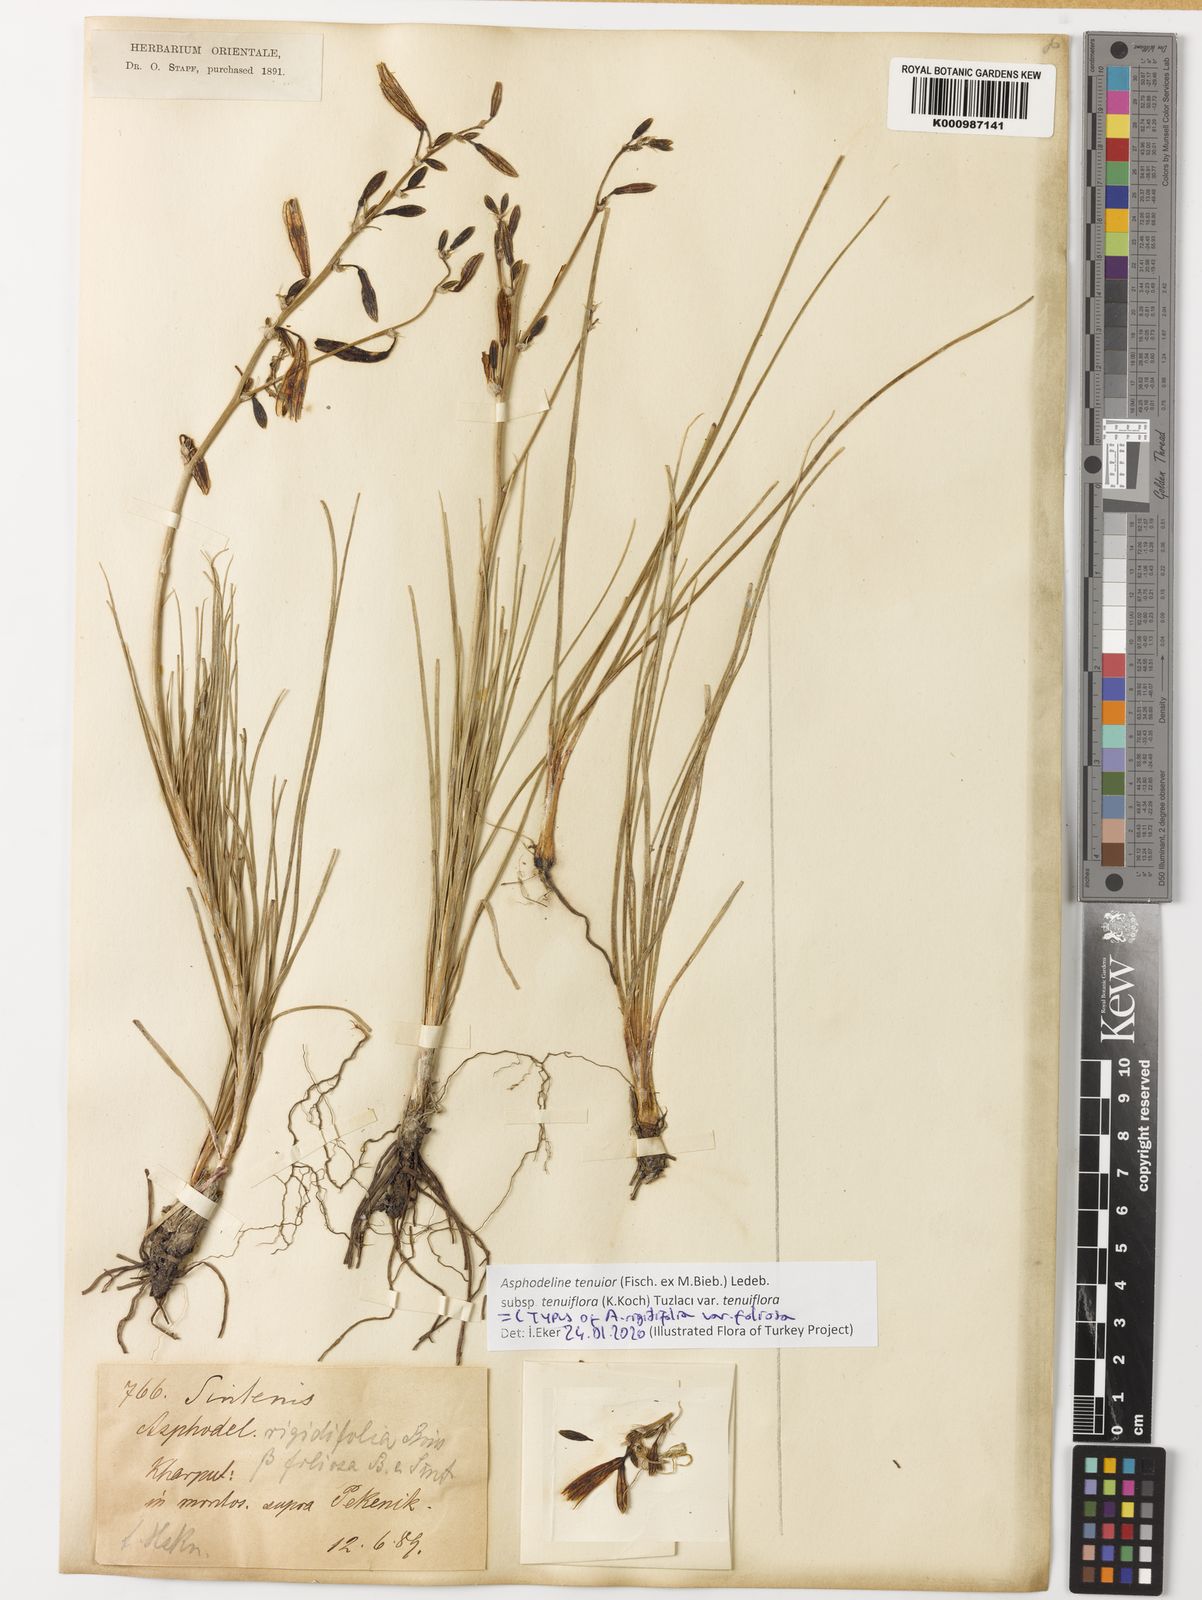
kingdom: Plantae
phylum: Tracheophyta
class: Liliopsida
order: Asparagales
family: Asphodelaceae
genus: Asphodeline
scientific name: Asphodeline tenuior
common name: Thin asphodeline
